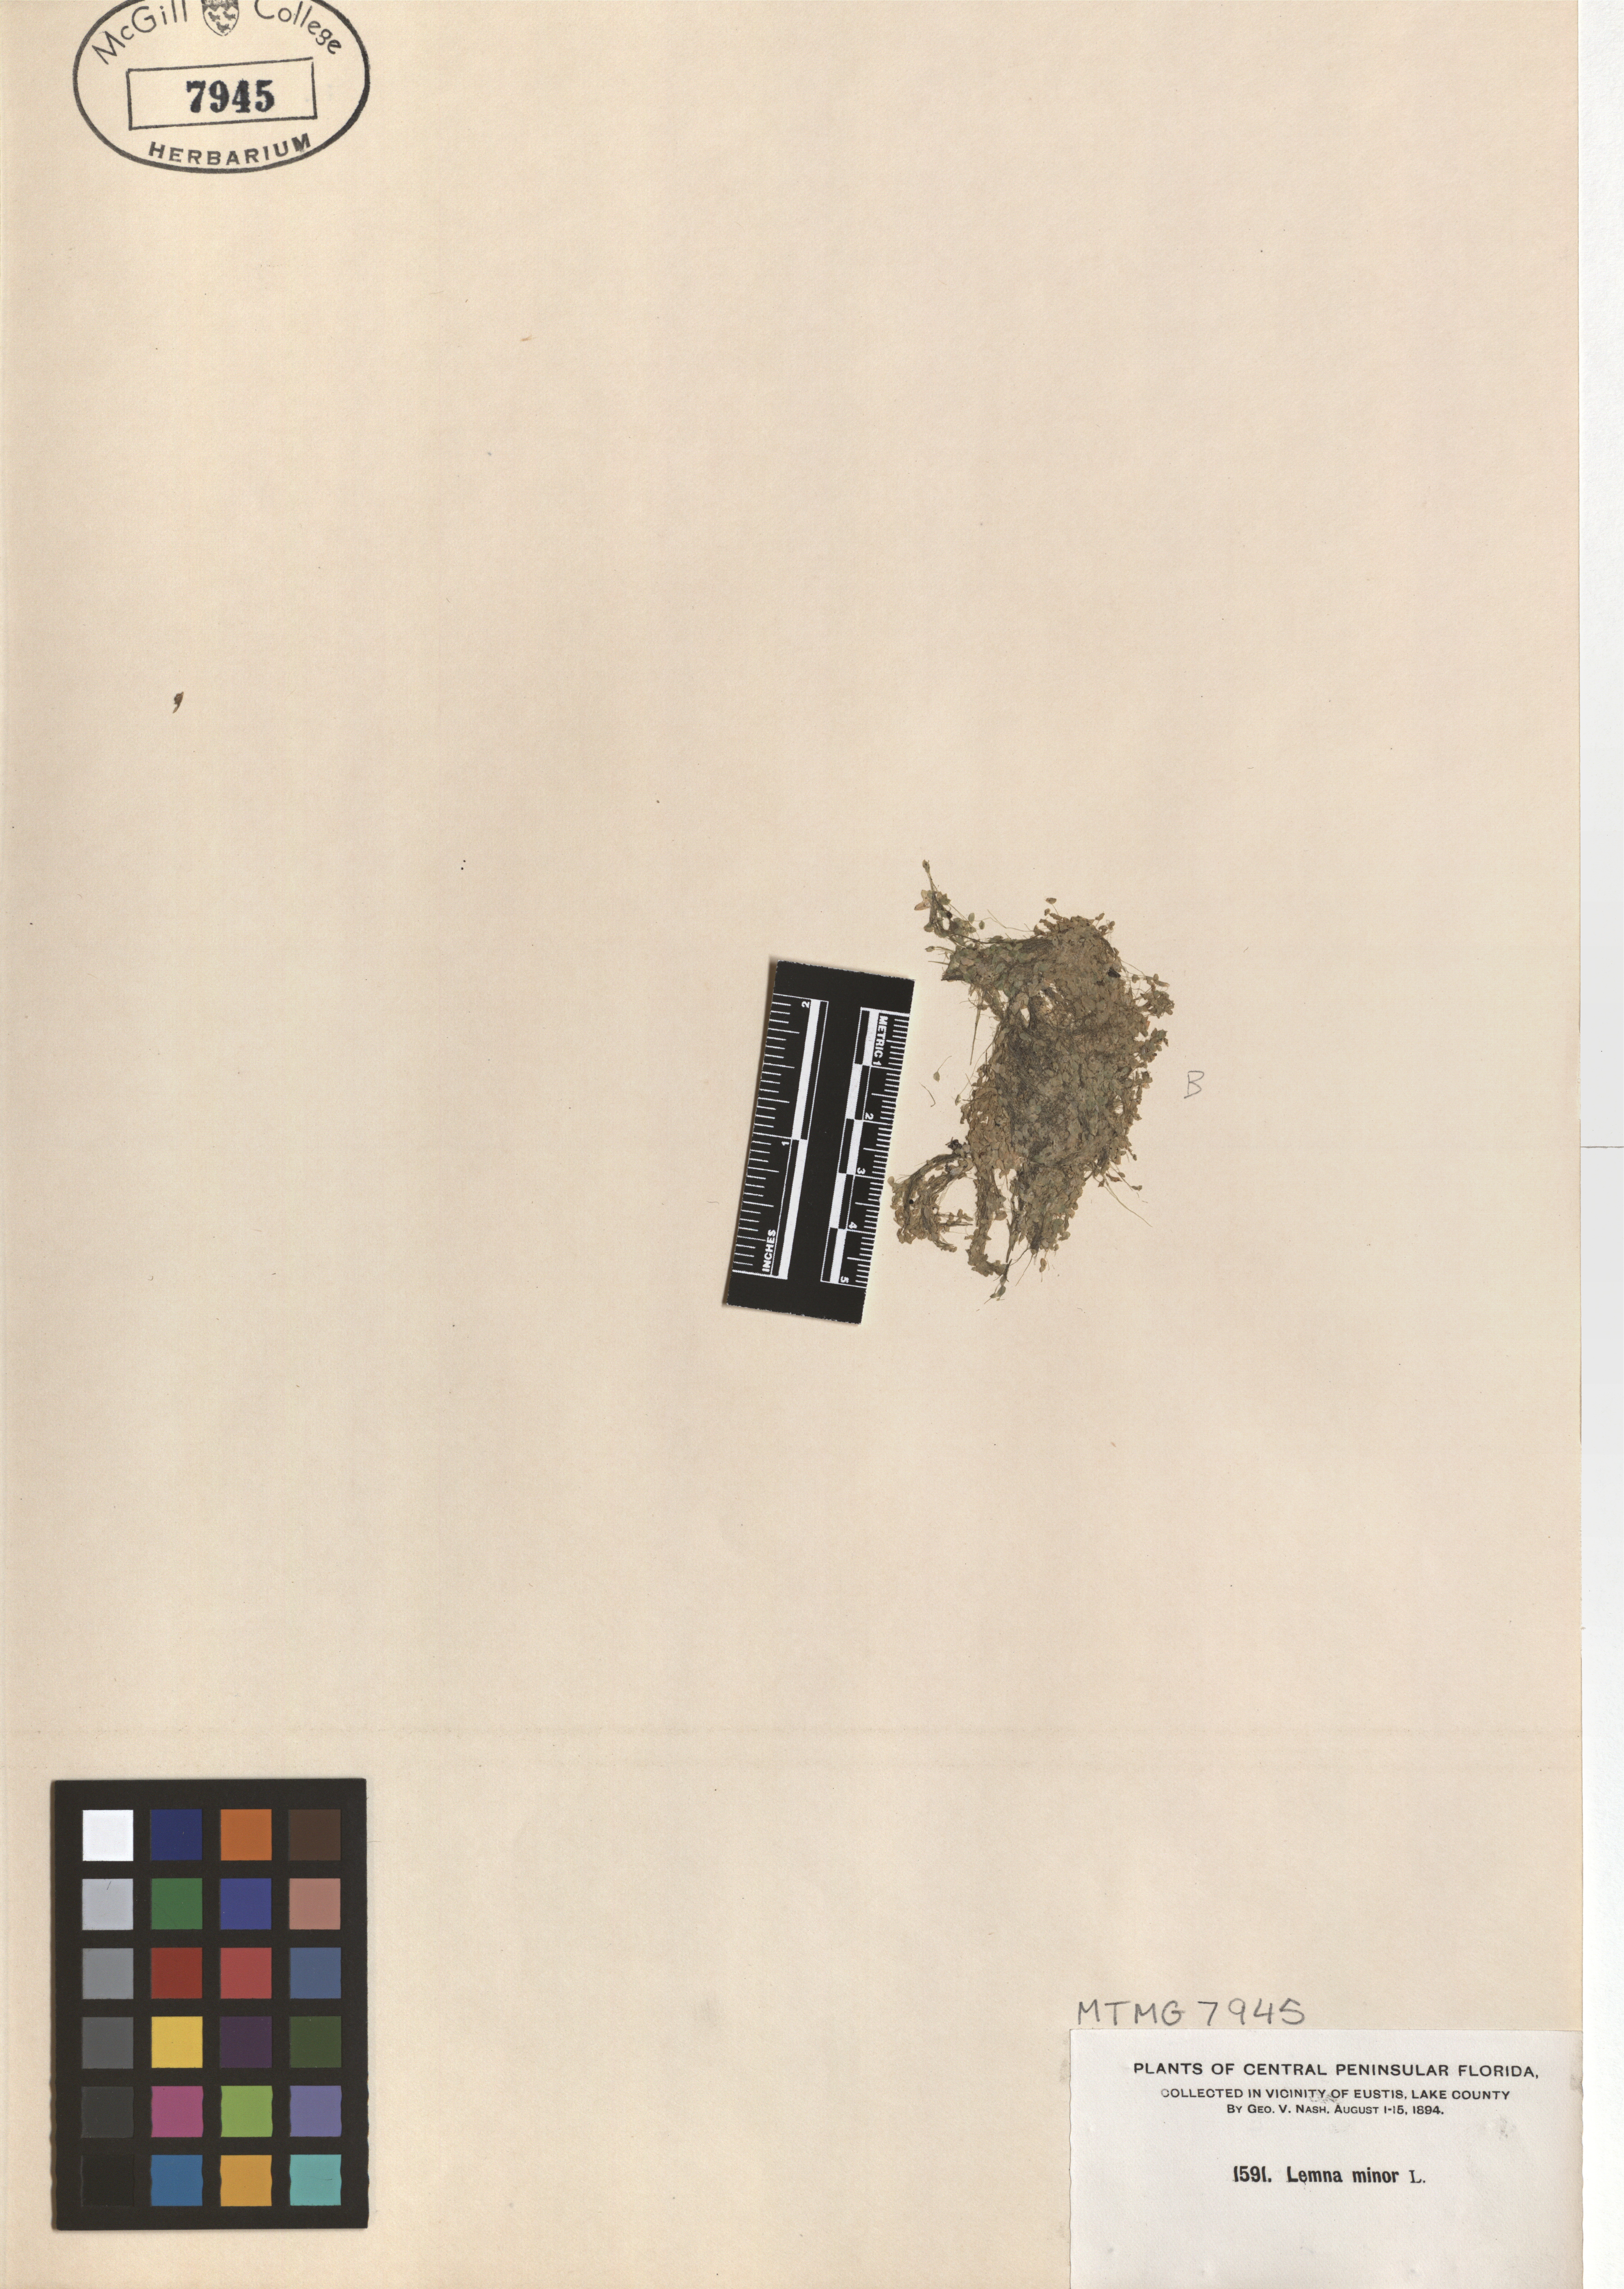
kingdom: Plantae
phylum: Tracheophyta
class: Liliopsida
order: Alismatales
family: Araceae
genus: Lemna
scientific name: Lemna minor
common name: Common duckweed
